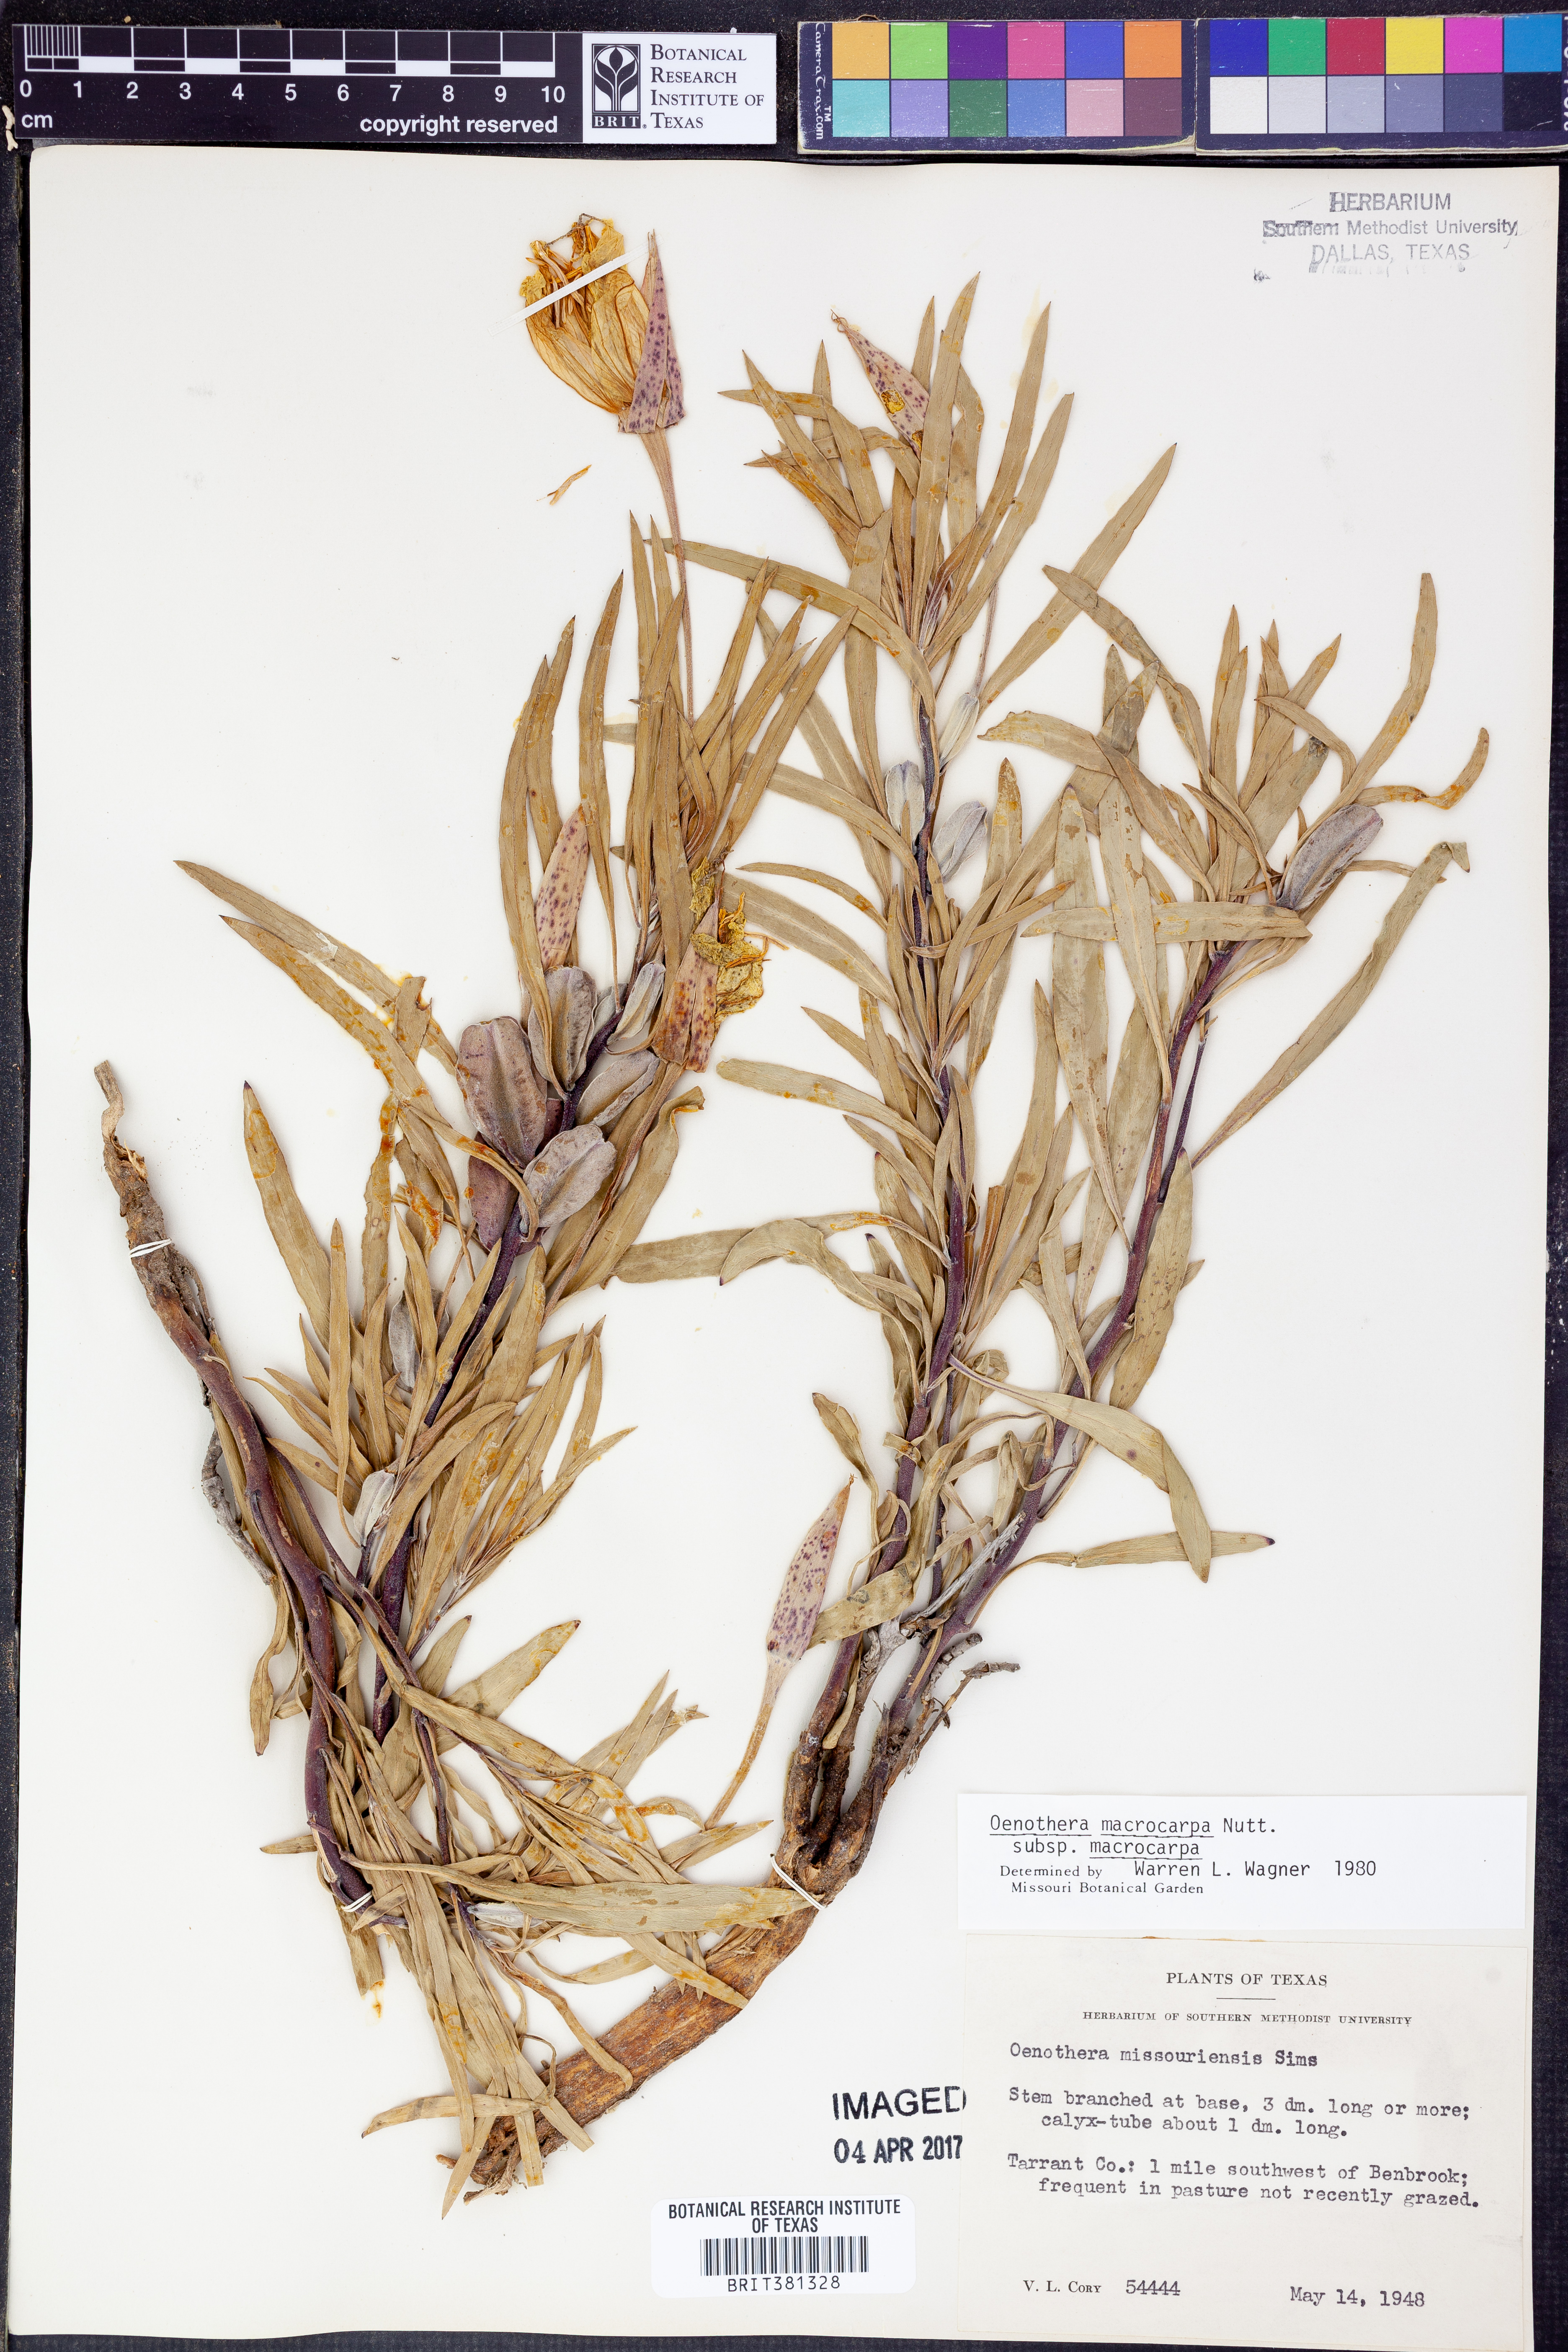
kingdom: Plantae
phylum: Tracheophyta
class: Magnoliopsida
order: Myrtales
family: Onagraceae
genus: Oenothera
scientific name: Oenothera macrocarpa
